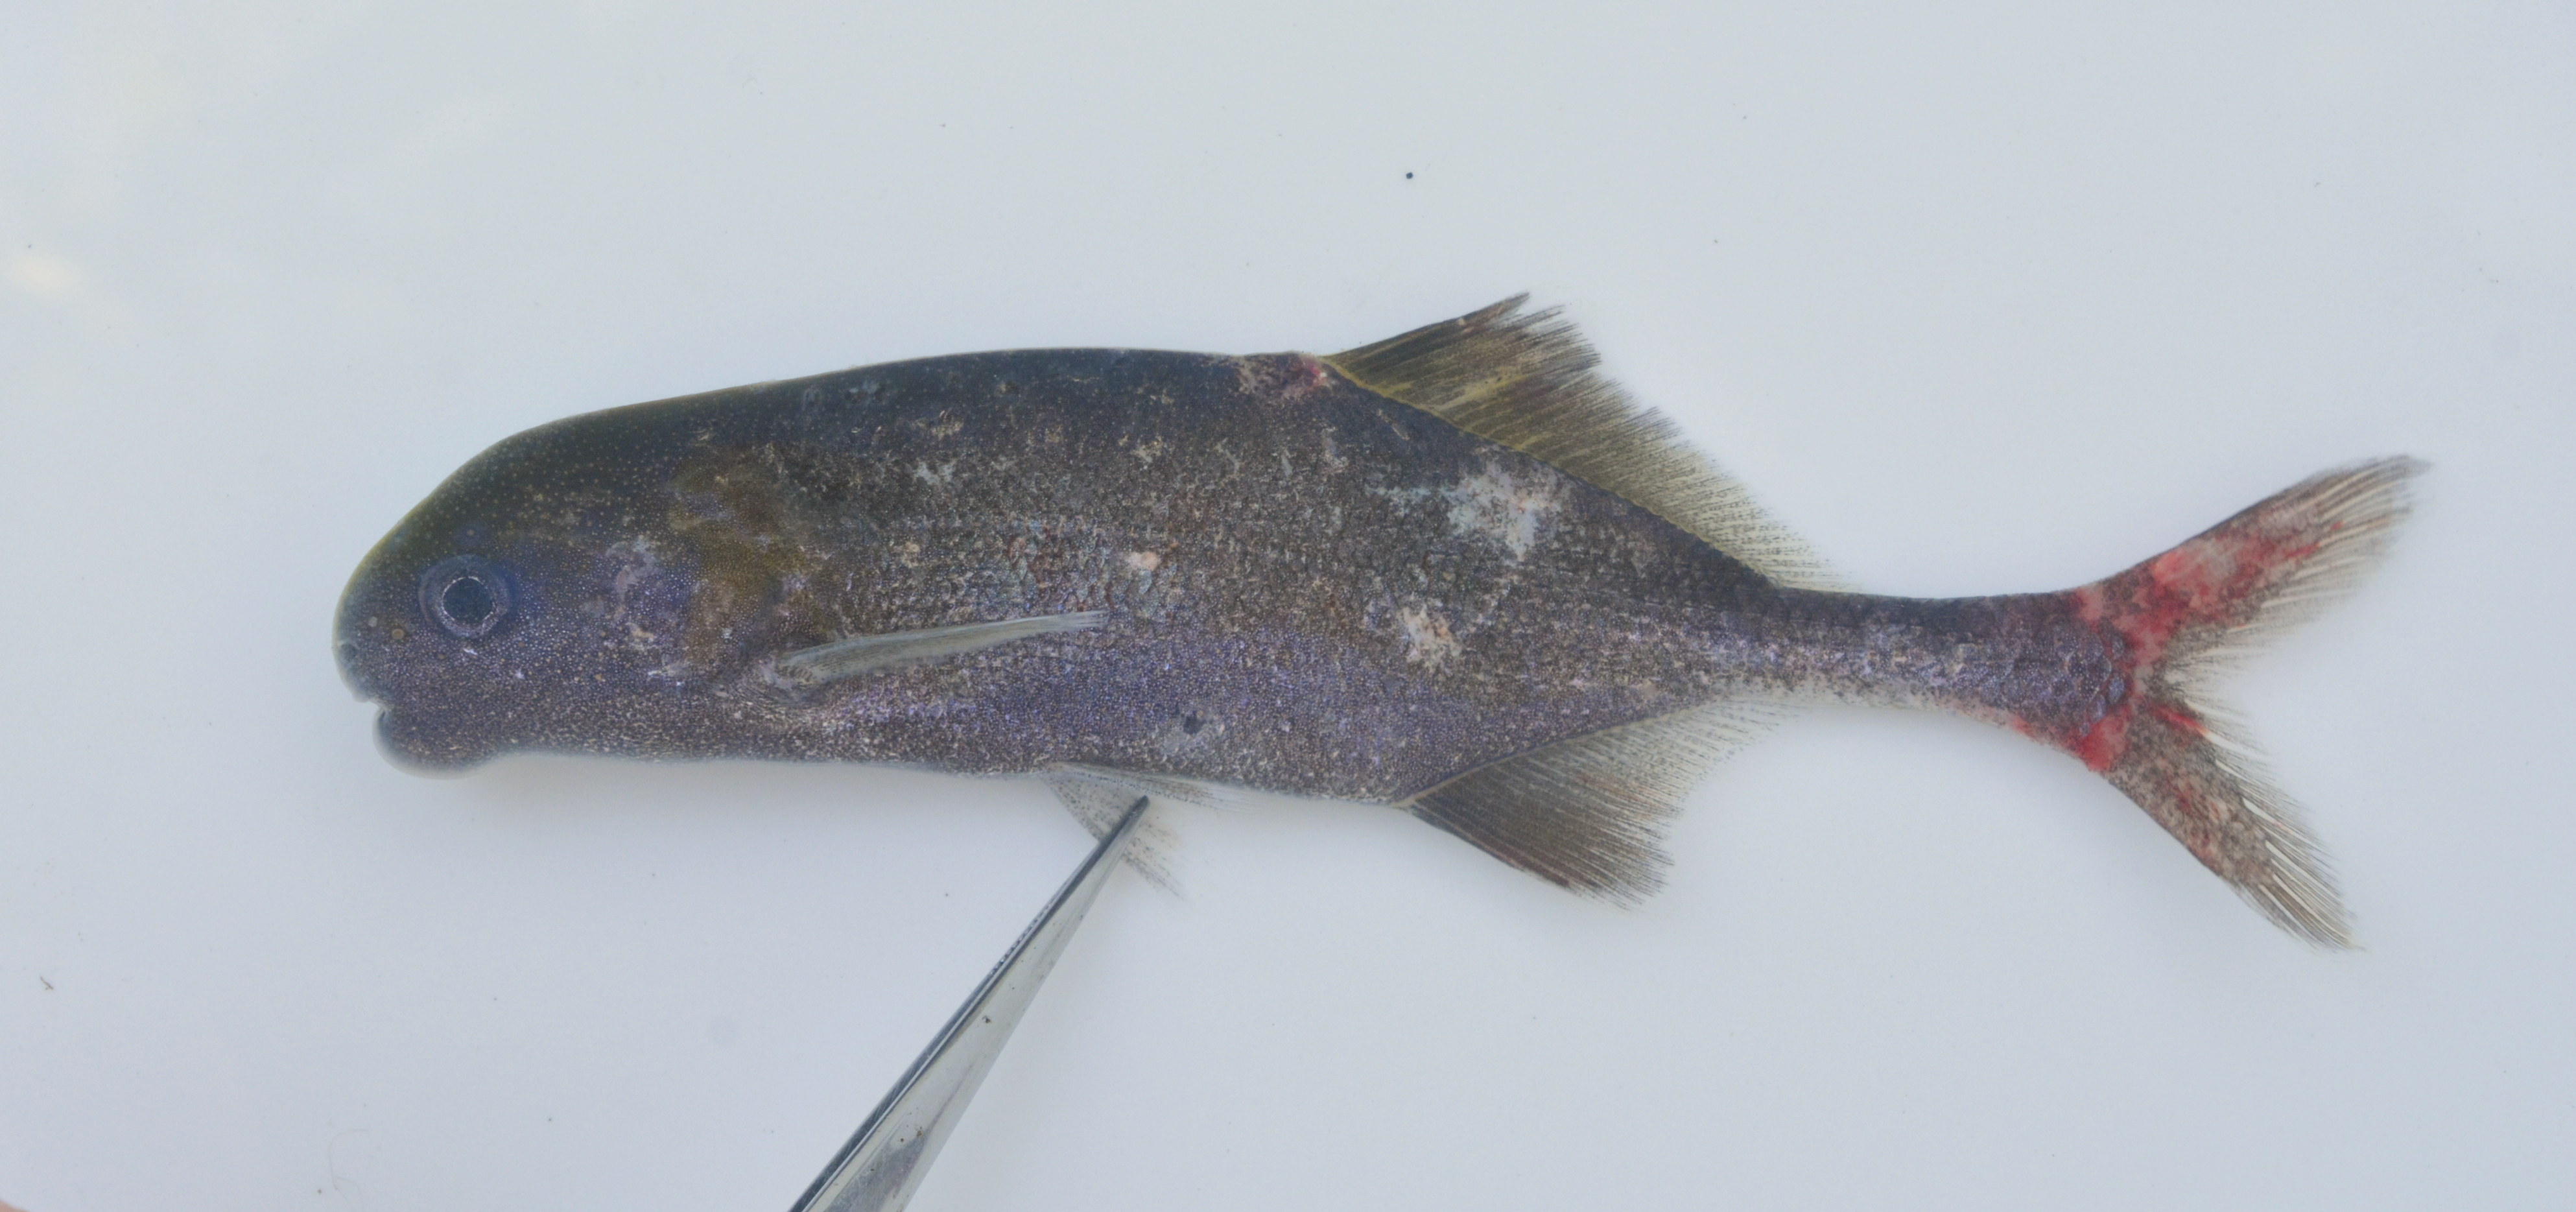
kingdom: Animalia
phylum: Chordata
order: Osteoglossiformes
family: Mormyridae
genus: Cyphomyrus
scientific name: Cyphomyrus discorhynchus
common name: Zambezi parrotfish
